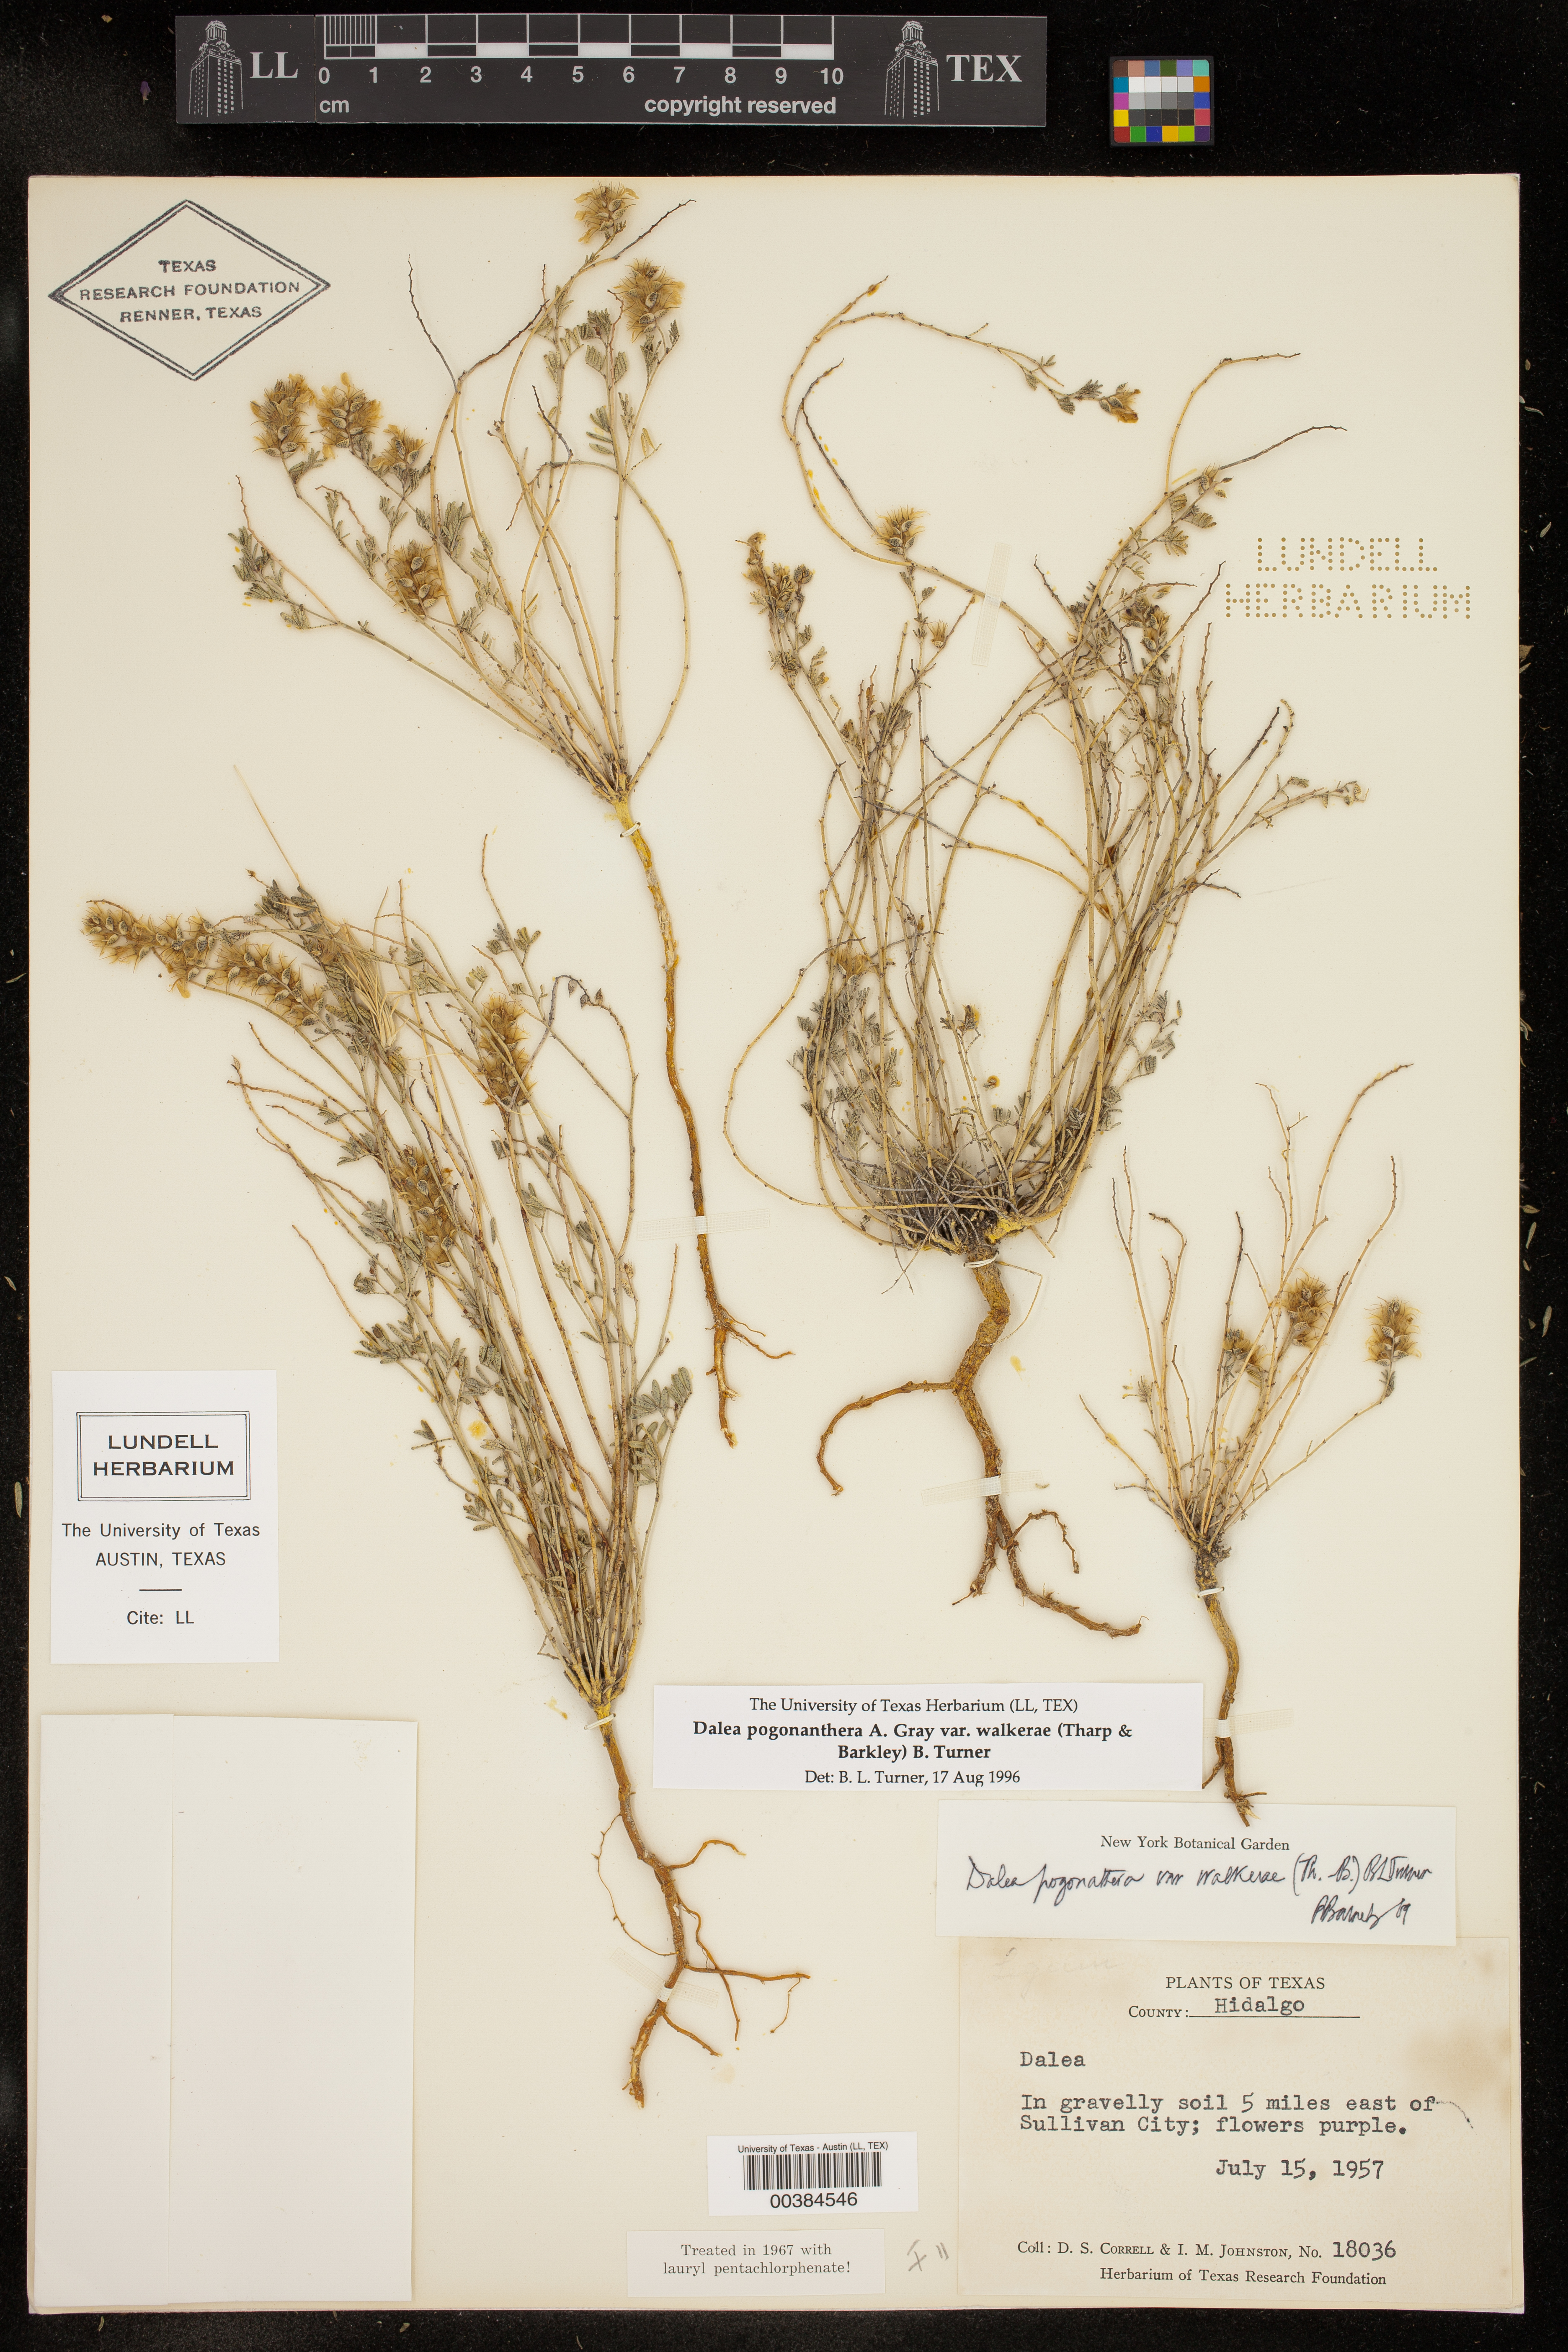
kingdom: Plantae
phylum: Tracheophyta
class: Magnoliopsida
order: Fabales
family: Fabaceae
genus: Dalea
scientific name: Dalea pogonathera
